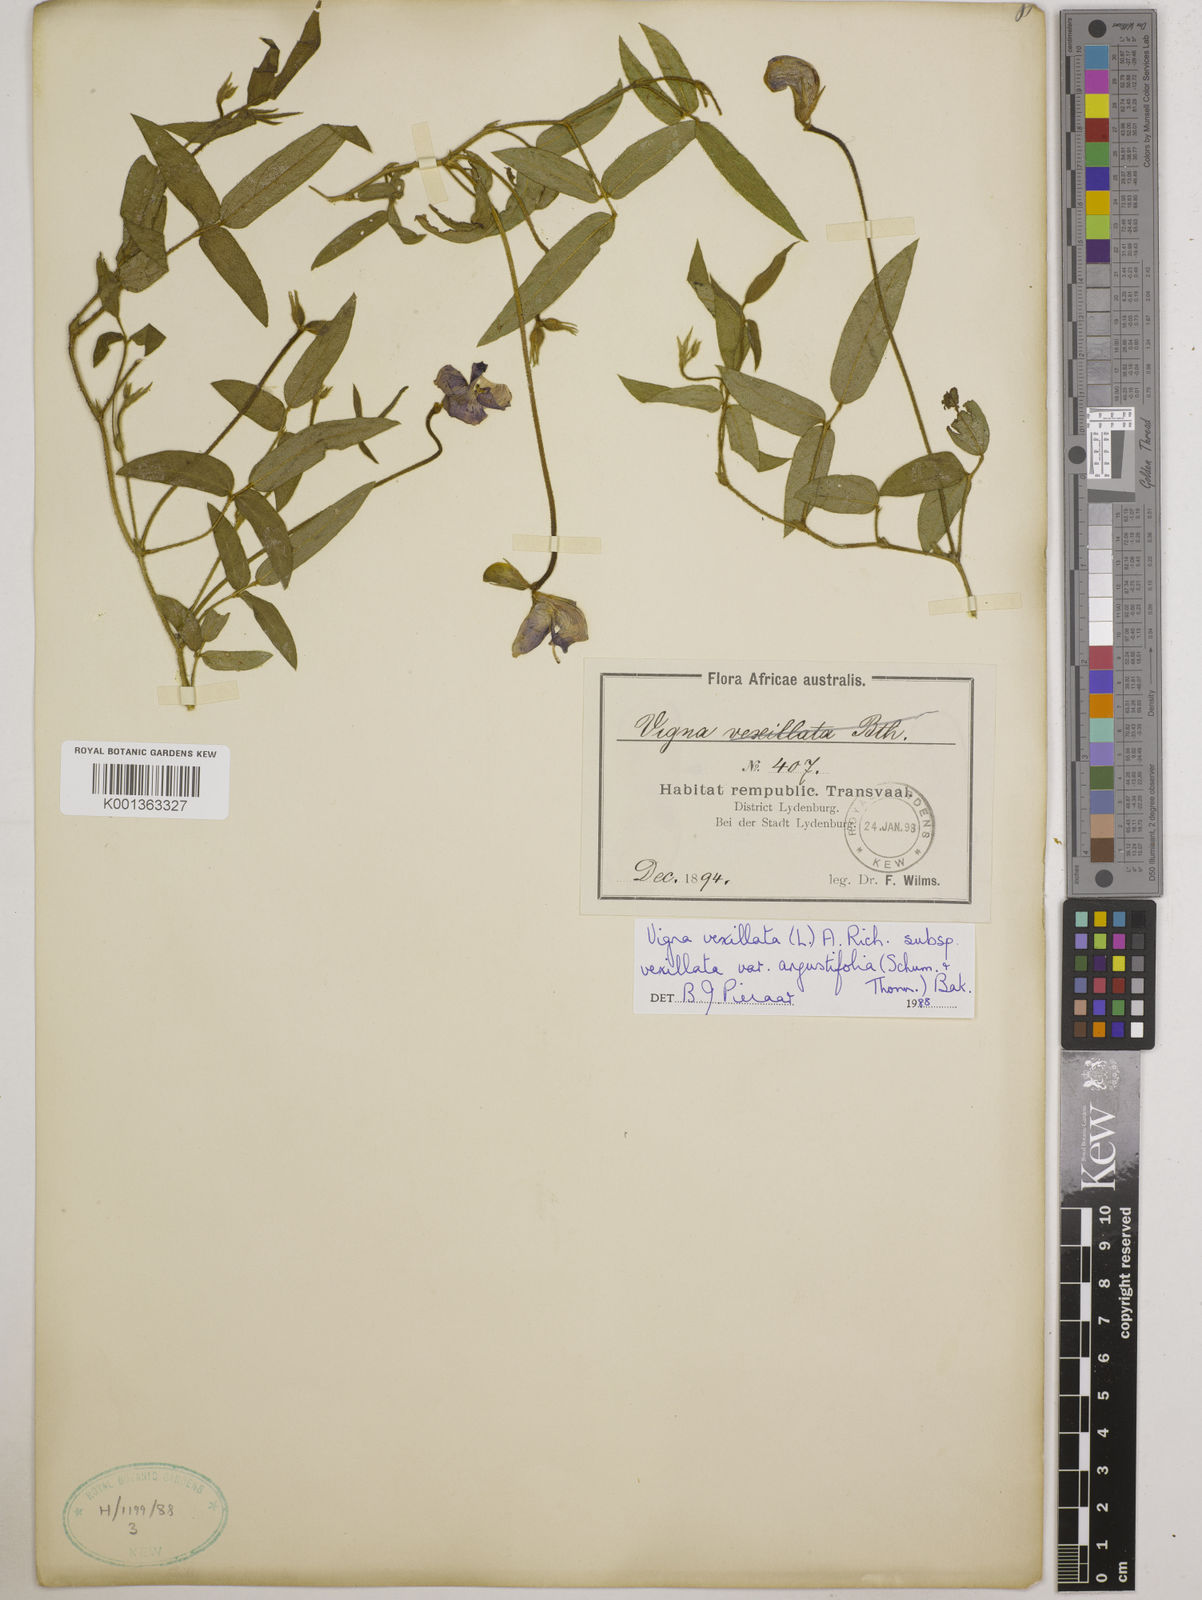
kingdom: Plantae
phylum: Tracheophyta
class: Magnoliopsida
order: Fabales
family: Fabaceae
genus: Vigna
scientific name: Vigna
